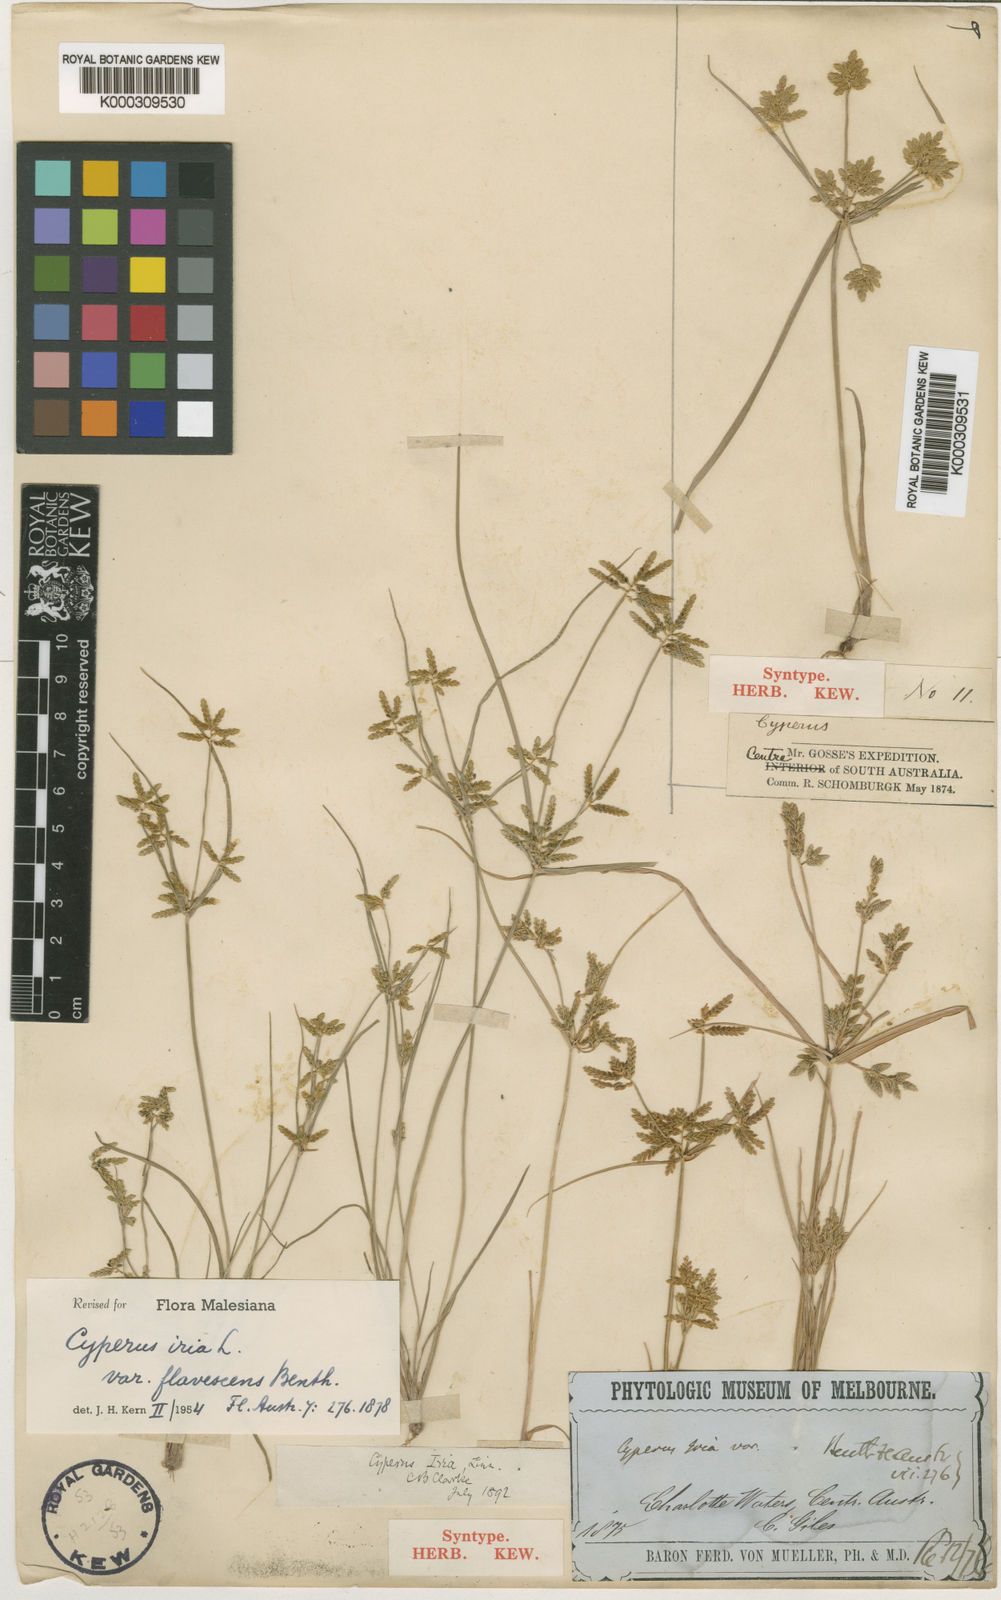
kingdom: Plantae
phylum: Tracheophyta
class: Liliopsida
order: Poales
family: Cyperaceae
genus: Cyperus
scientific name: Cyperus iria
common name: Ricefield flatsedge
